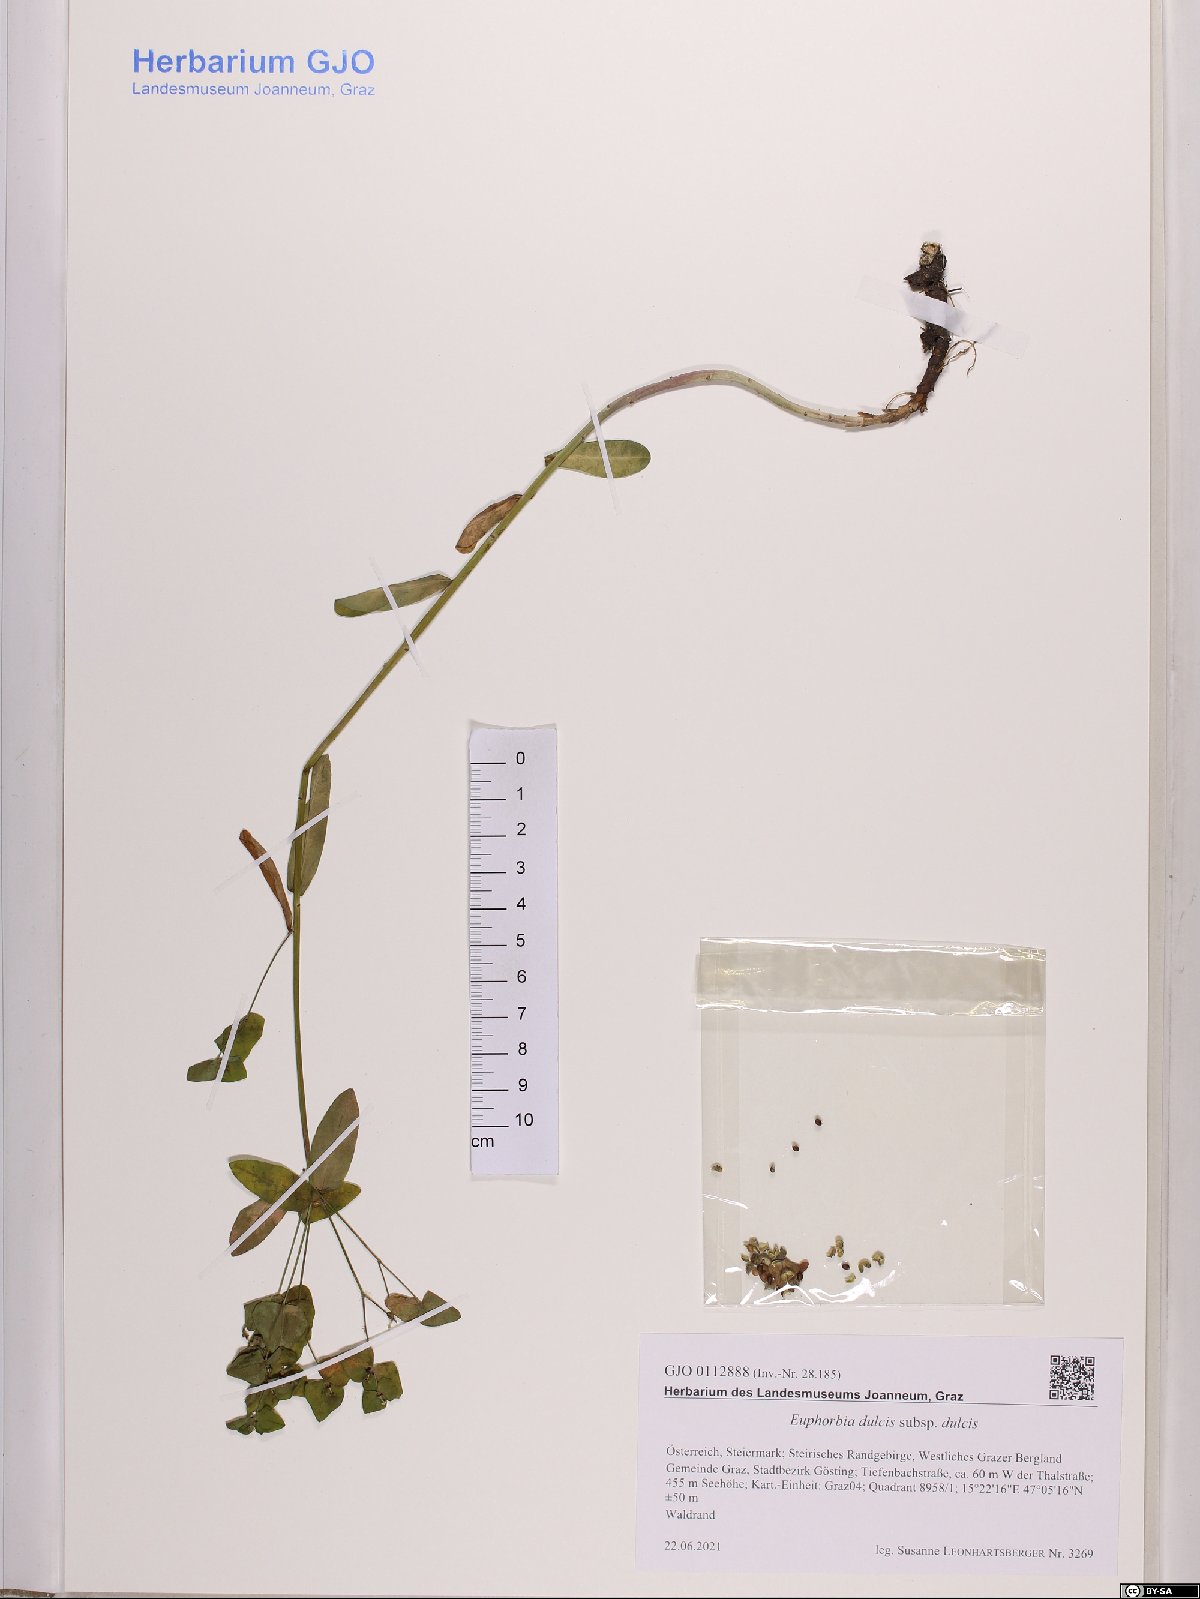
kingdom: Plantae
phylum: Tracheophyta
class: Magnoliopsida
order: Malpighiales
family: Euphorbiaceae
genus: Euphorbia
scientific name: Euphorbia dulcis
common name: Sweet spurge
